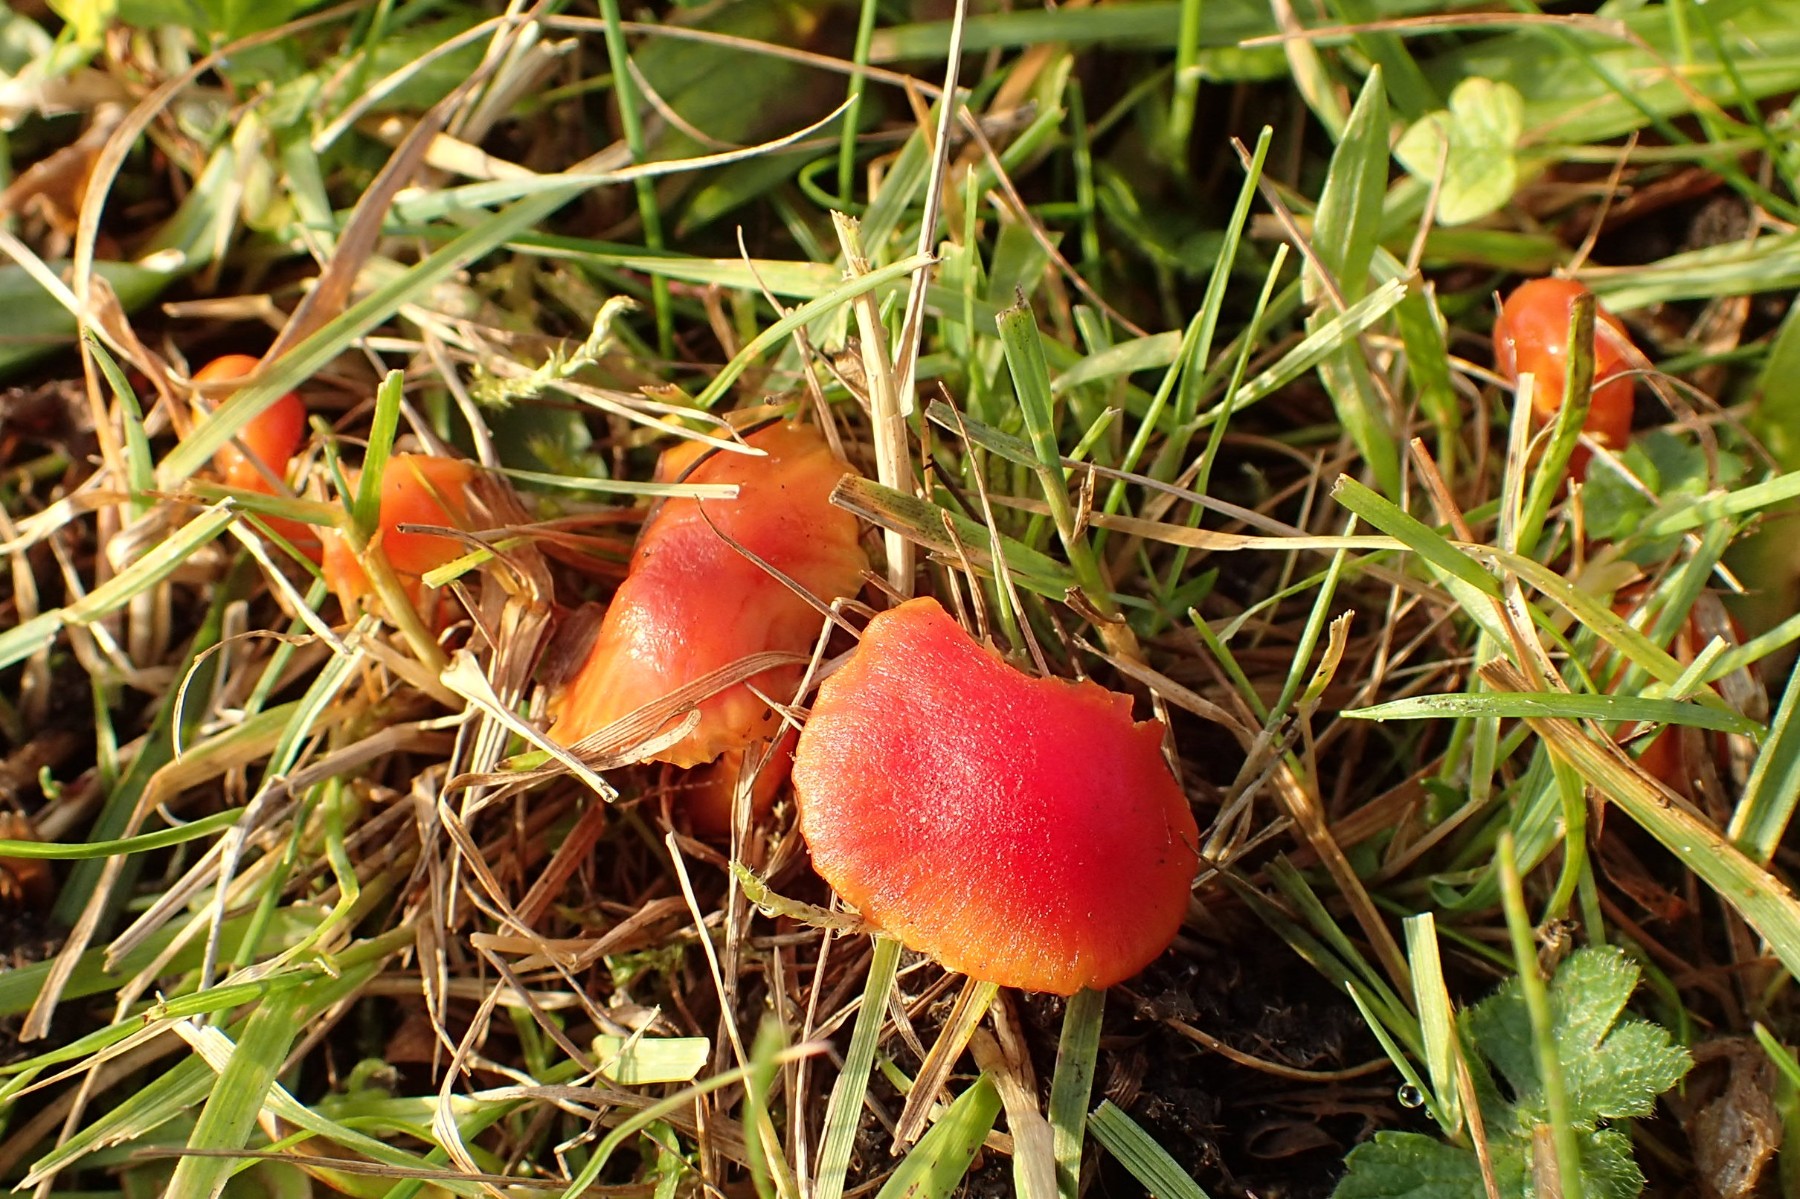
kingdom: Fungi
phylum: Basidiomycota
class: Agaricomycetes
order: Agaricales
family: Hygrophoraceae
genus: Hygrocybe
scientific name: Hygrocybe mucronella
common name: bitter vokshat
